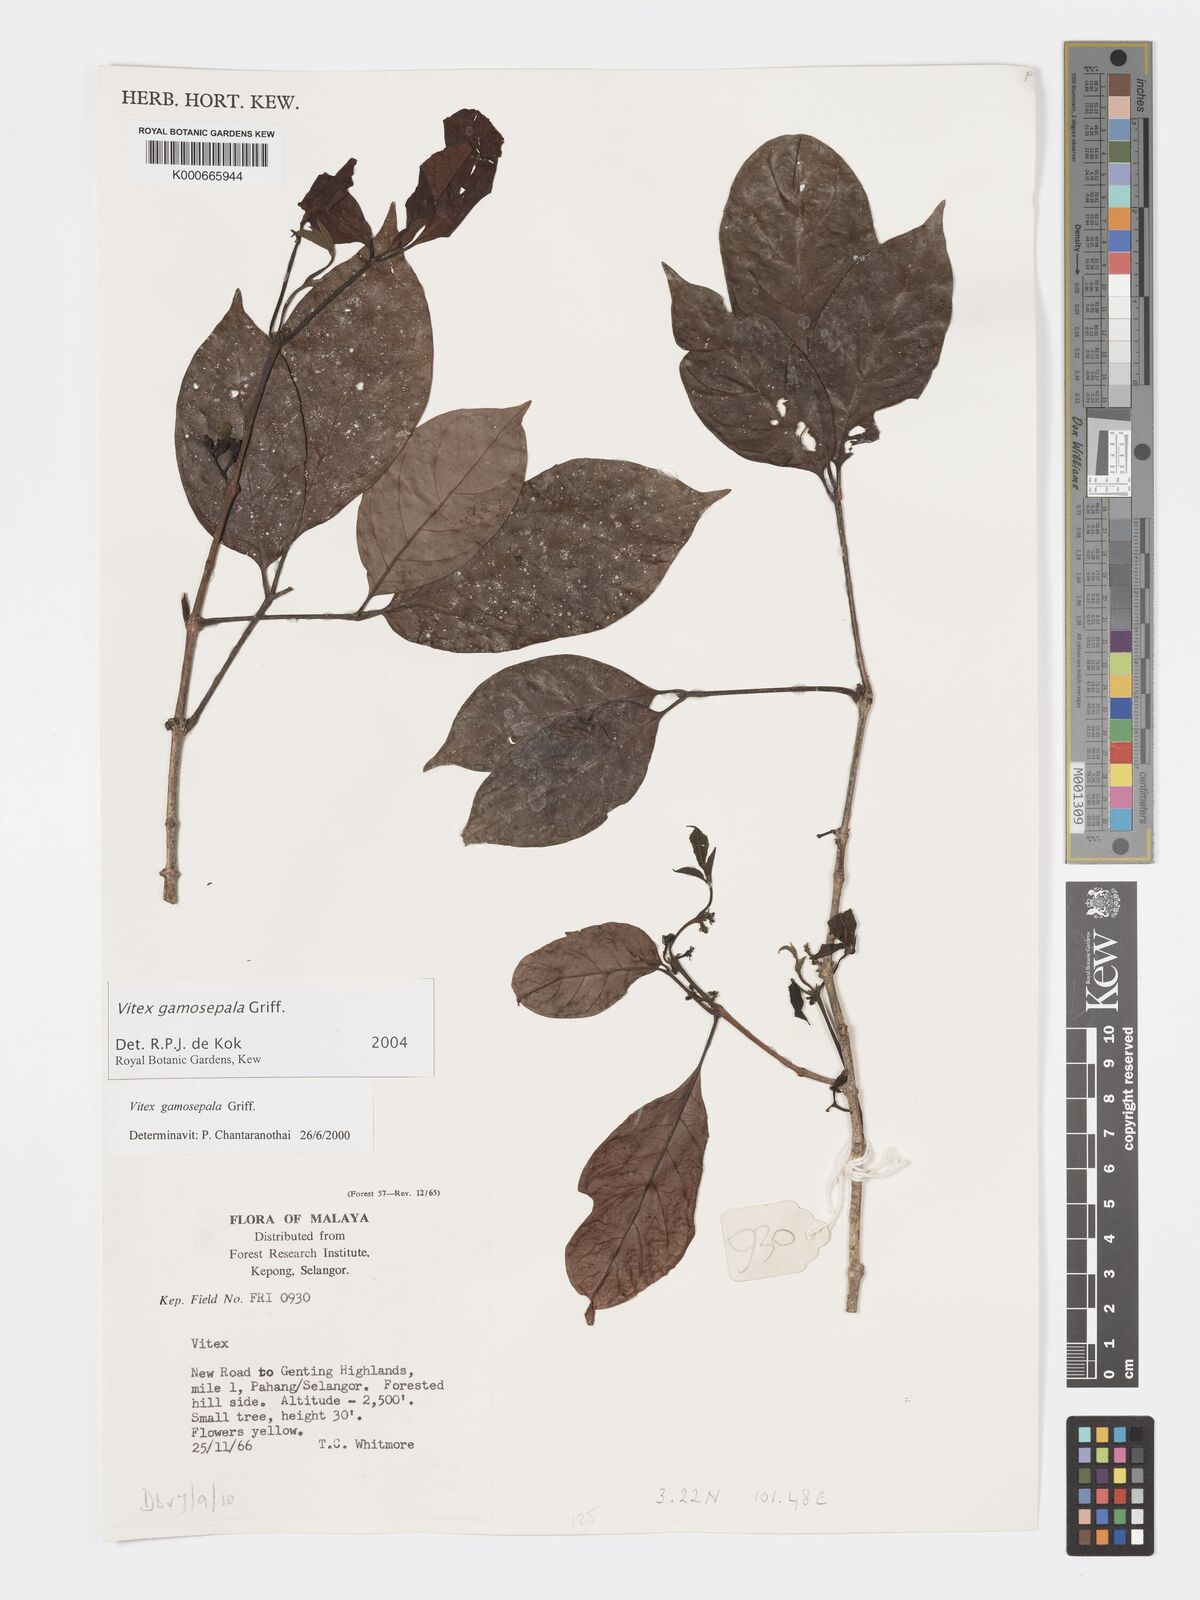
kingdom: Plantae
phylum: Tracheophyta
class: Magnoliopsida
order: Lamiales
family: Lamiaceae
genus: Vitex
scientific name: Vitex gamosepala
